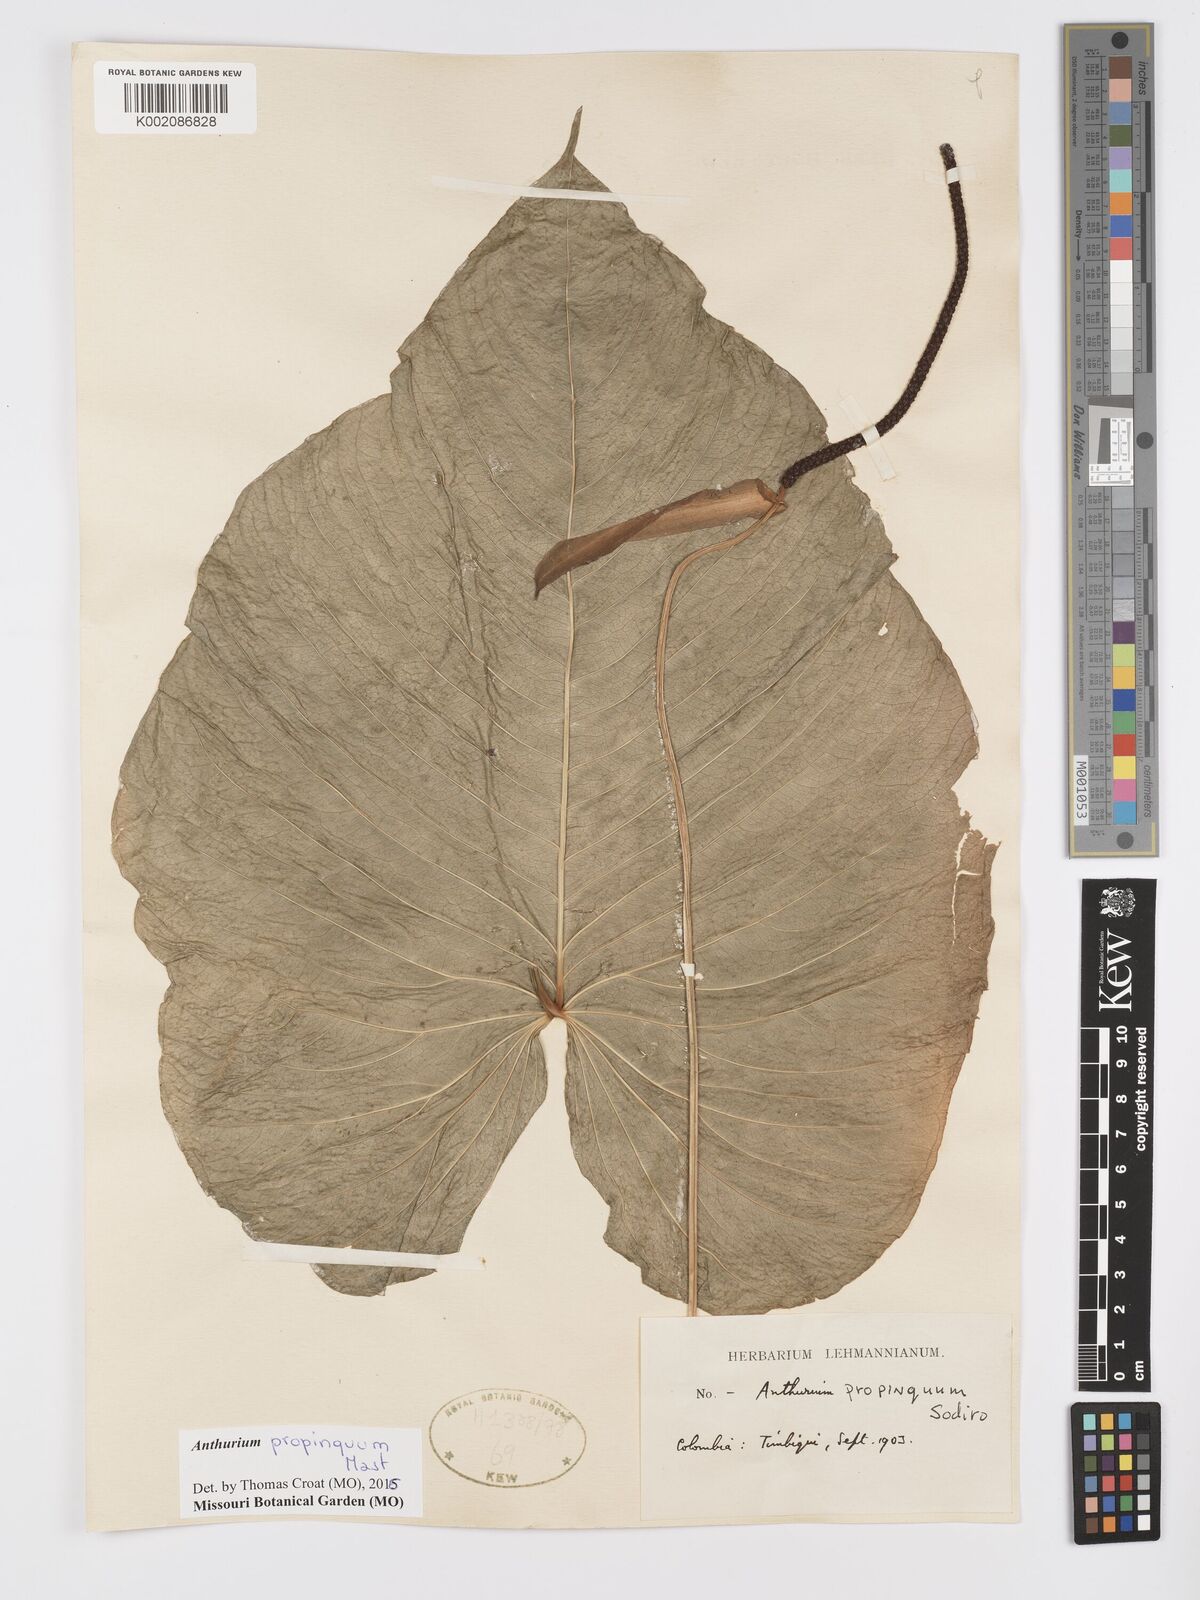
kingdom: Plantae
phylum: Tracheophyta
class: Liliopsida
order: Alismatales
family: Araceae
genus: Anthurium
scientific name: Anthurium cuspidatum
